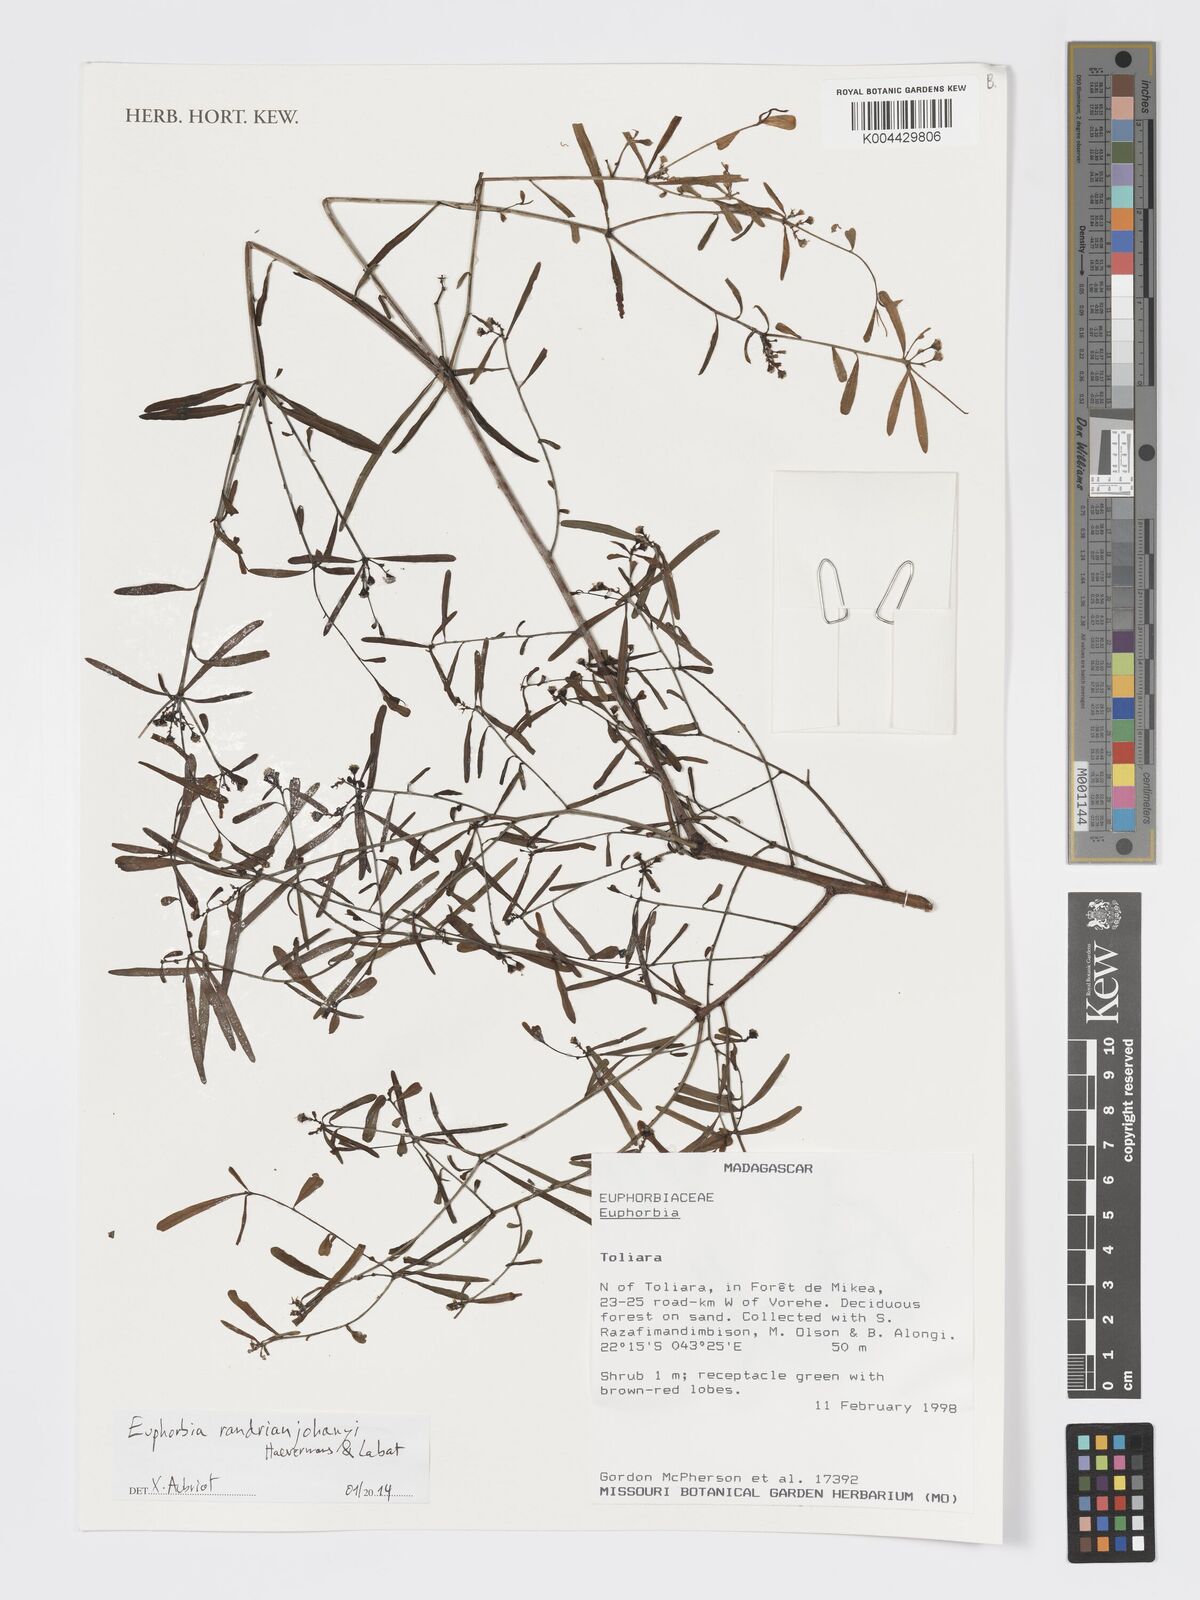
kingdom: Plantae
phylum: Tracheophyta
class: Magnoliopsida
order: Malpighiales
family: Euphorbiaceae
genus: Euphorbia
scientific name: Euphorbia randrianijohanyi
